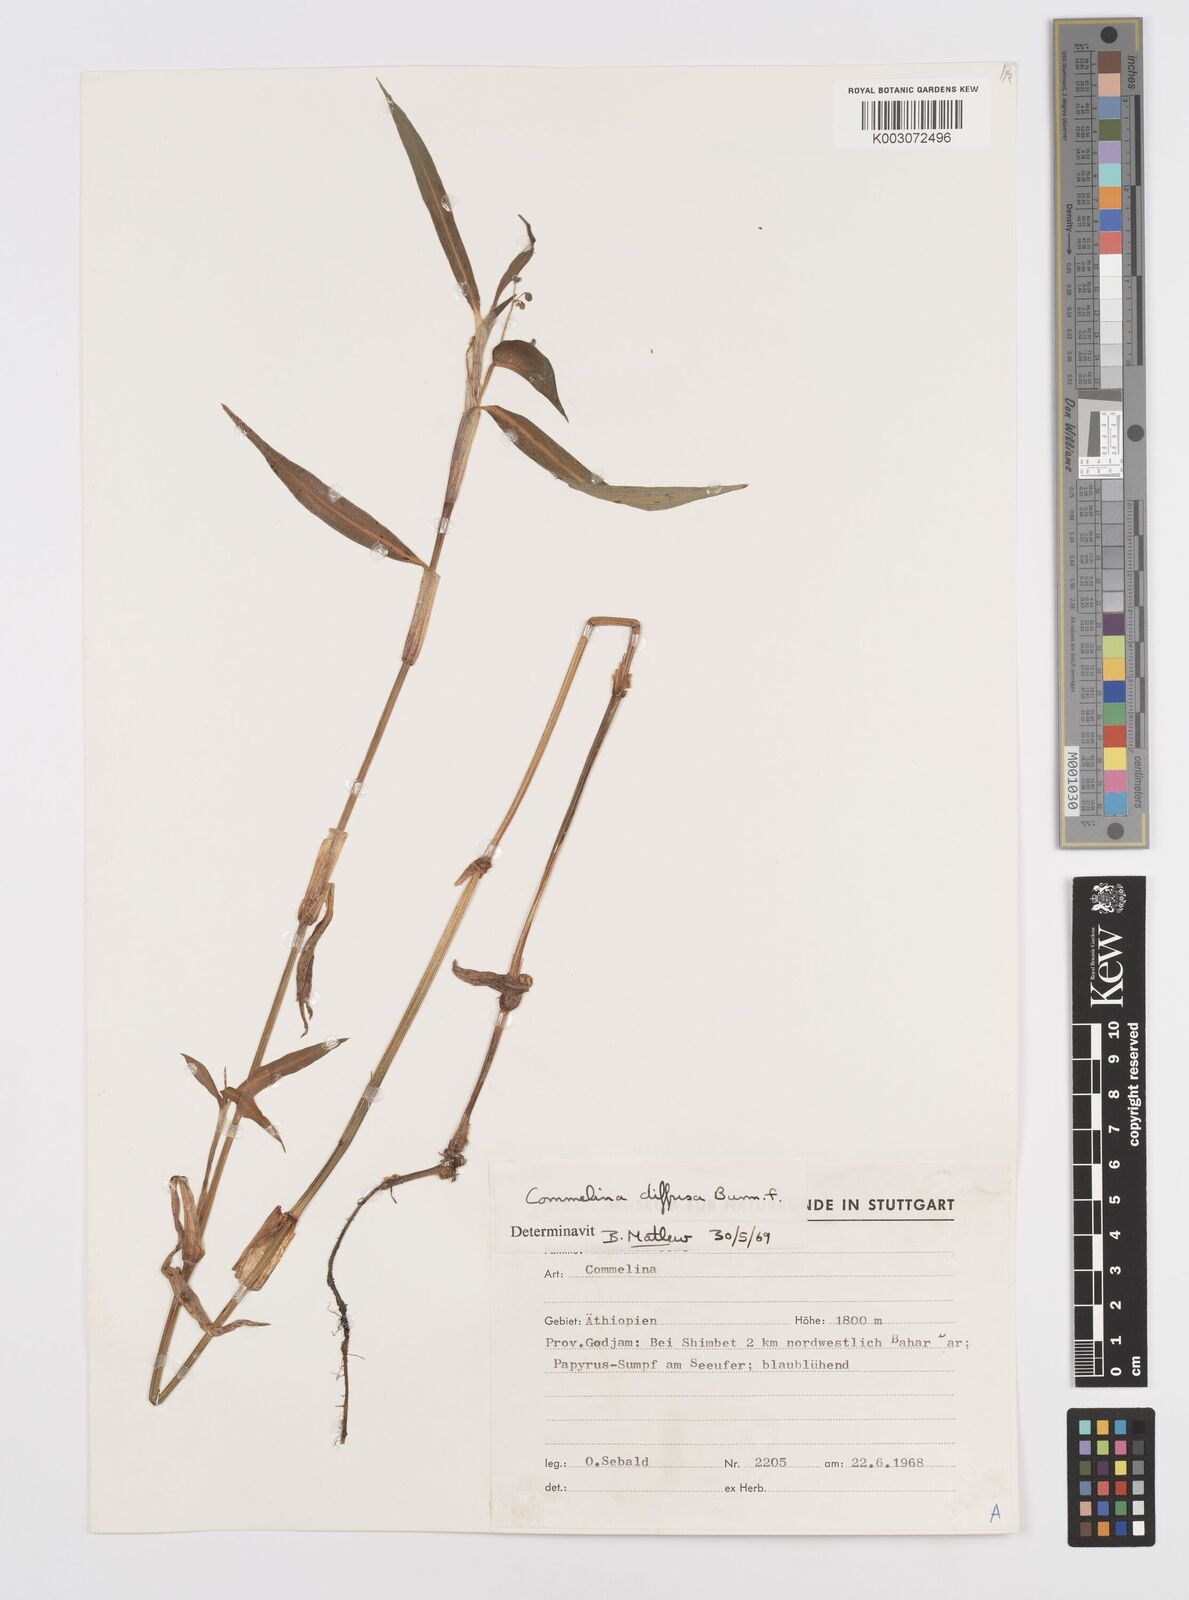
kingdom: Plantae
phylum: Tracheophyta
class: Liliopsida
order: Commelinales
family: Commelinaceae
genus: Commelina
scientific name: Commelina diffusa
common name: Climbing dayflower
